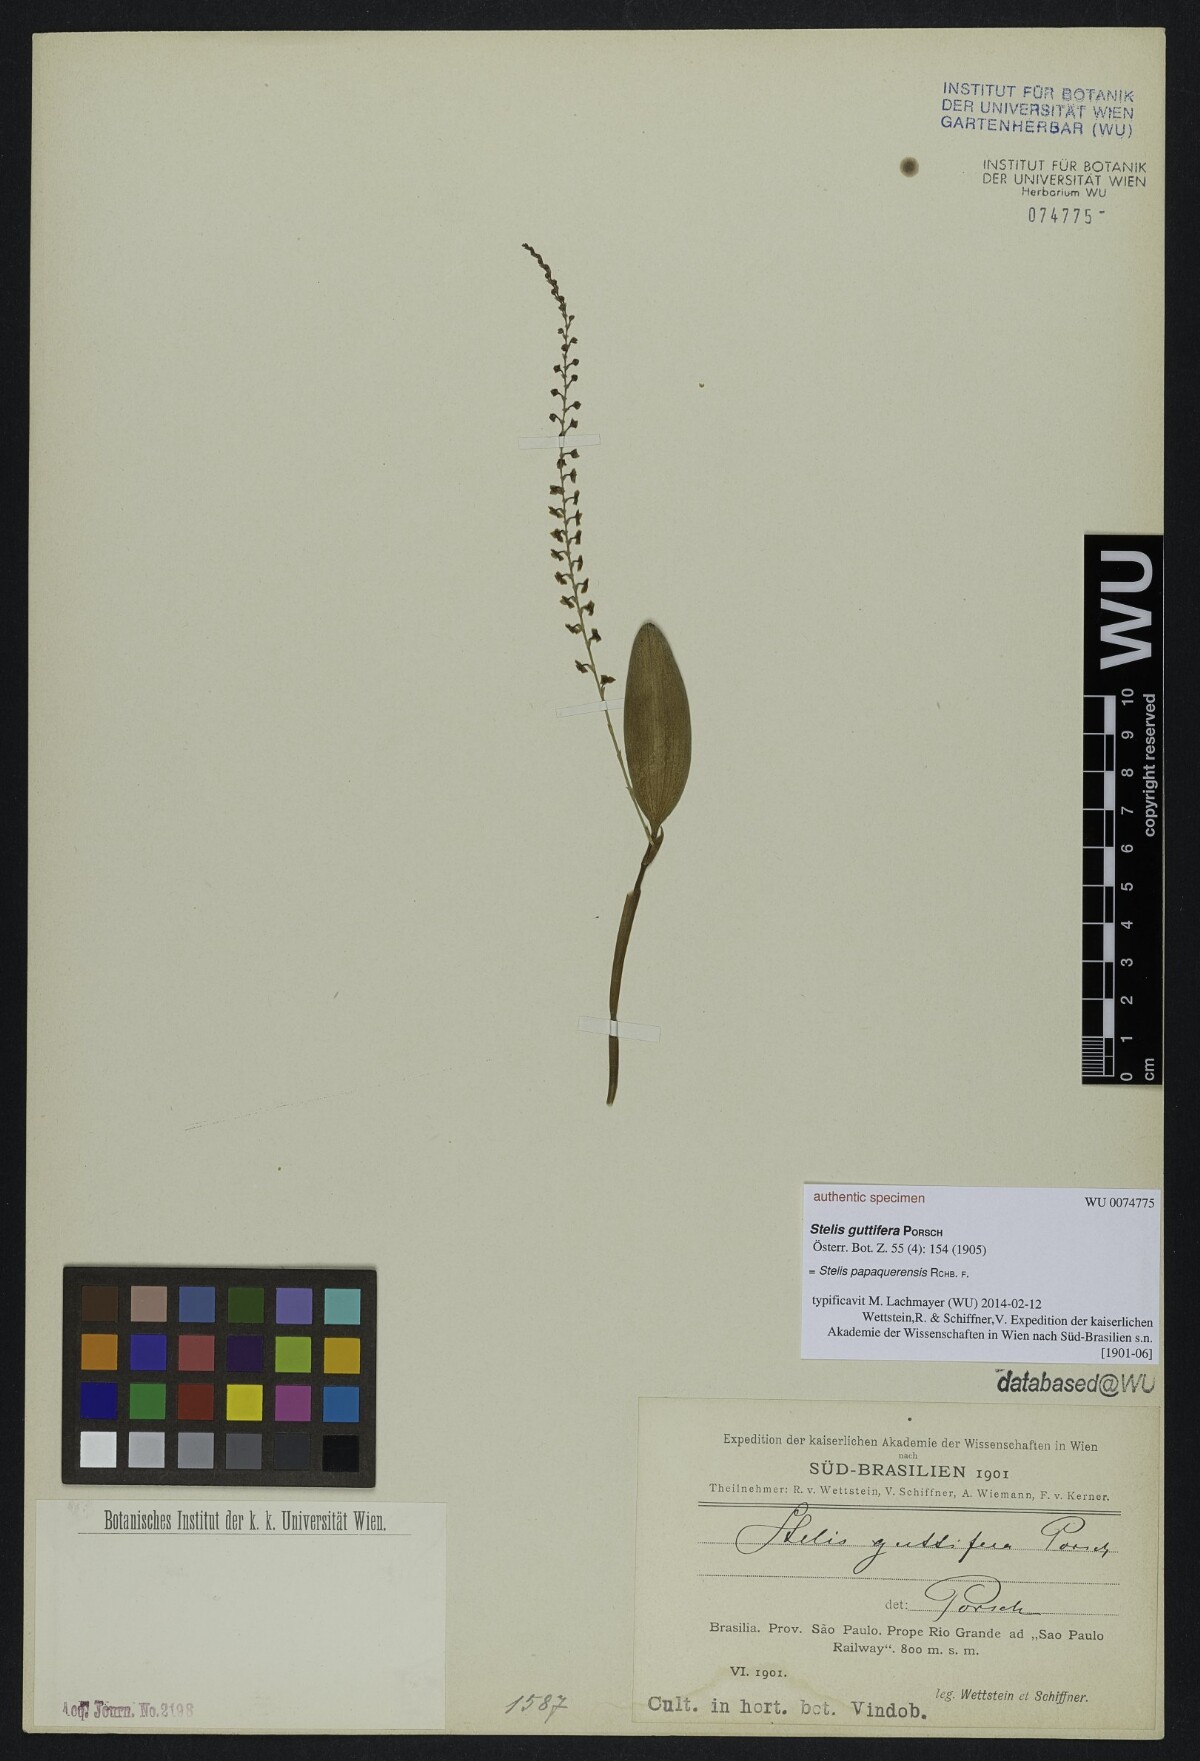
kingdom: Plantae
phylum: Tracheophyta
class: Liliopsida
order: Asparagales
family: Orchidaceae
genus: Stelis
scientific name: Stelis papaquerensis
